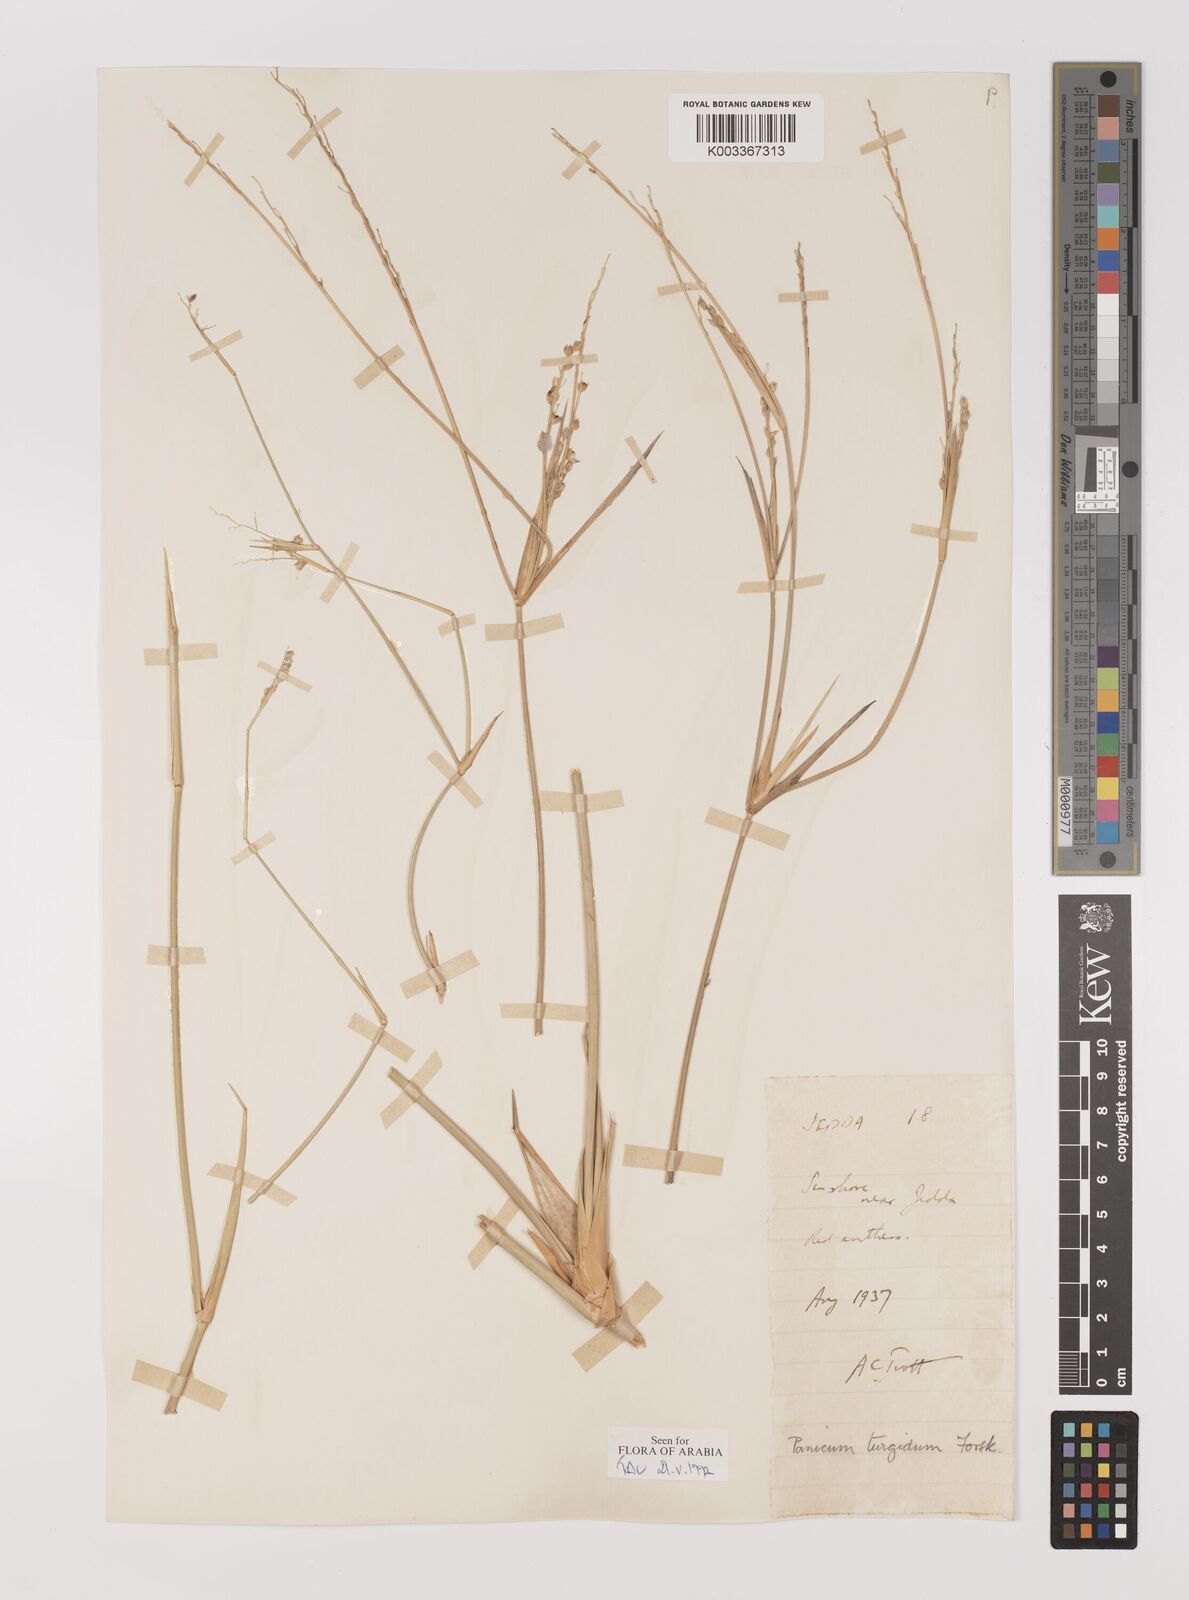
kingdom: Plantae
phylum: Tracheophyta
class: Liliopsida
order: Poales
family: Poaceae
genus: Panicum
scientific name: Panicum turgidum
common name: Desert grass
